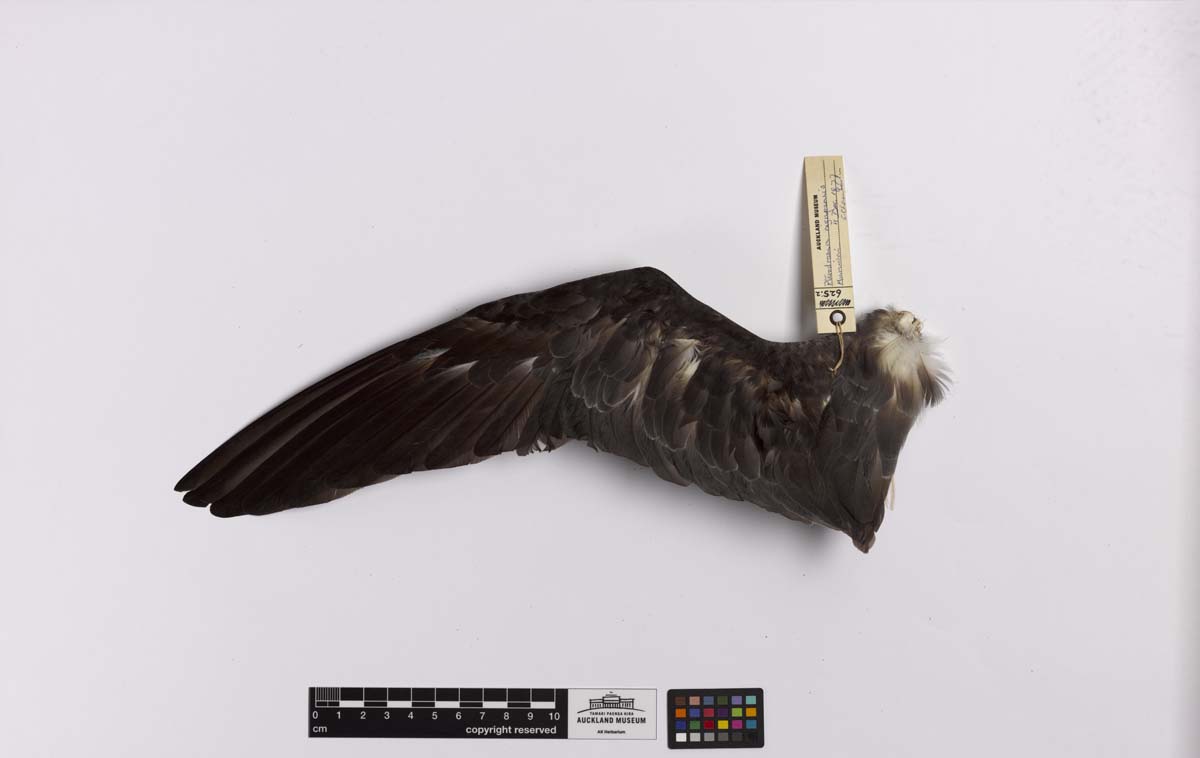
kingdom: Animalia
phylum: Chordata
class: Aves
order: Procellariiformes
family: Procellariidae
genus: Pterodroma
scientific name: Pterodroma nigripennis
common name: Black-winged petrel
